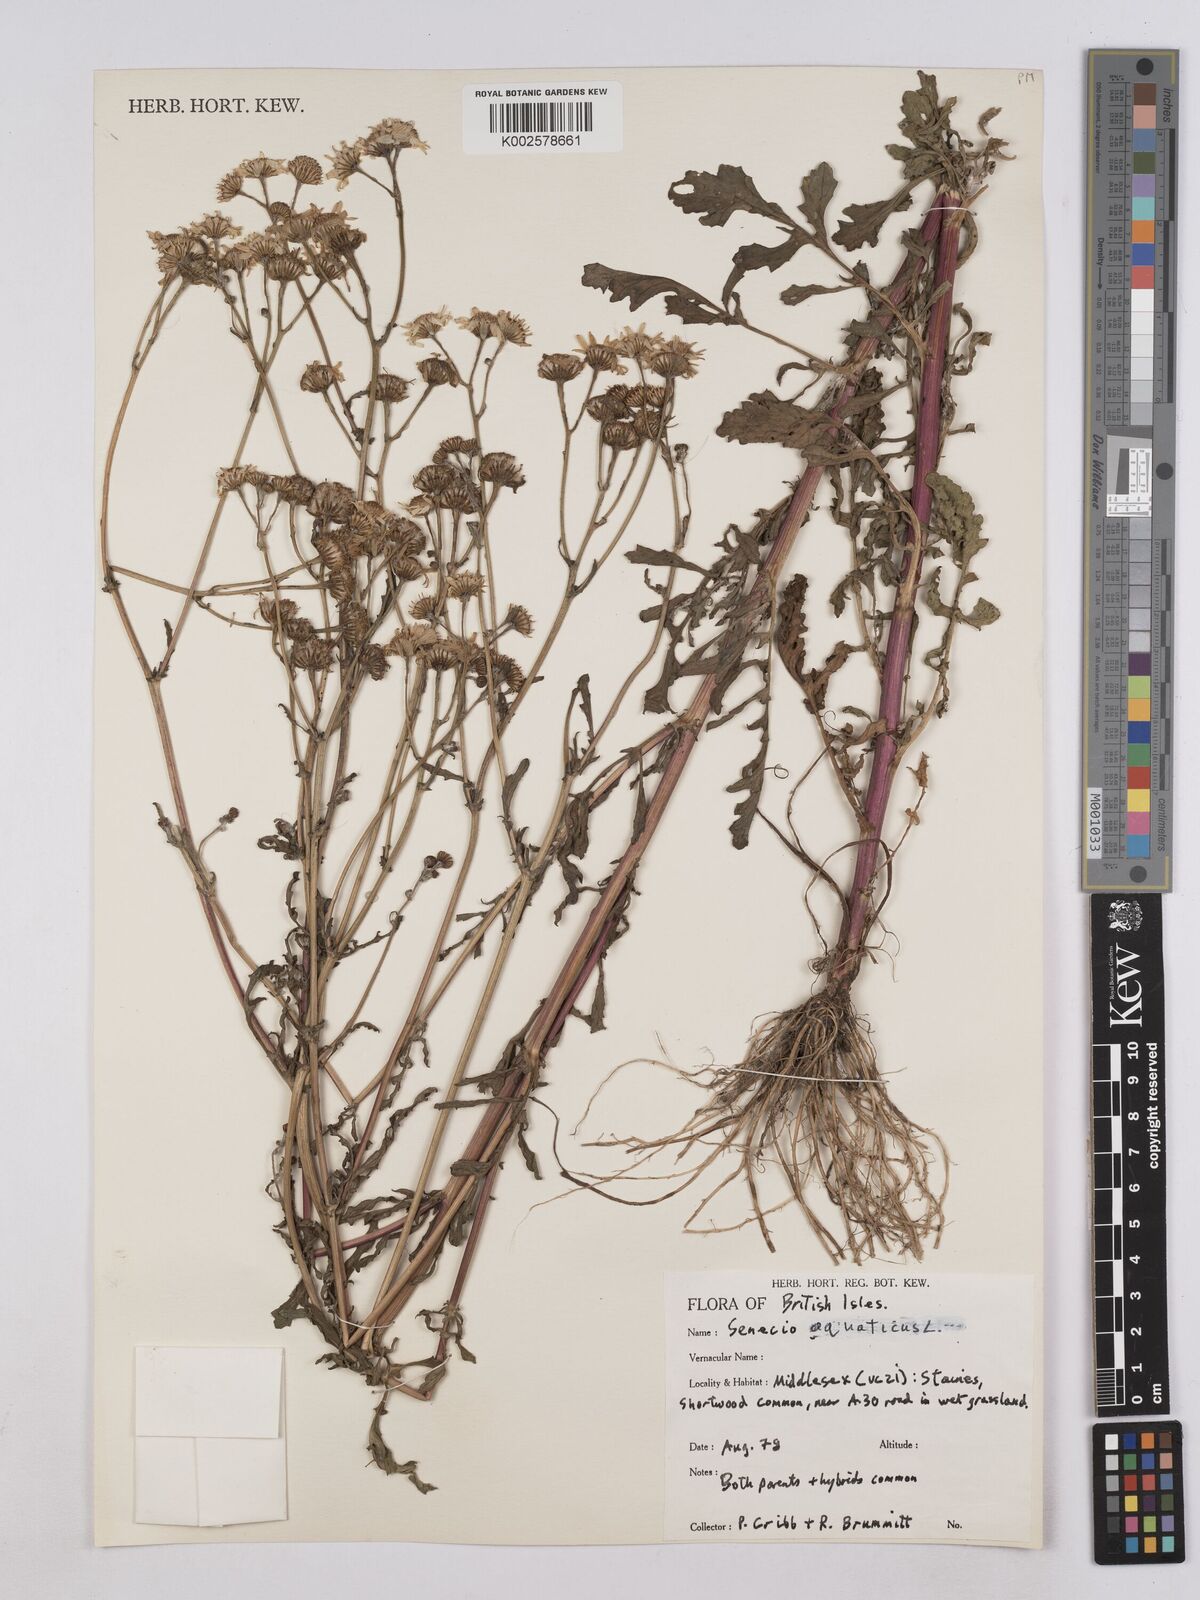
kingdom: Plantae
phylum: Tracheophyta
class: Magnoliopsida
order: Asterales
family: Asteraceae
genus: Jacobaea
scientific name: Jacobaea aquatica
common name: Water ragwort
